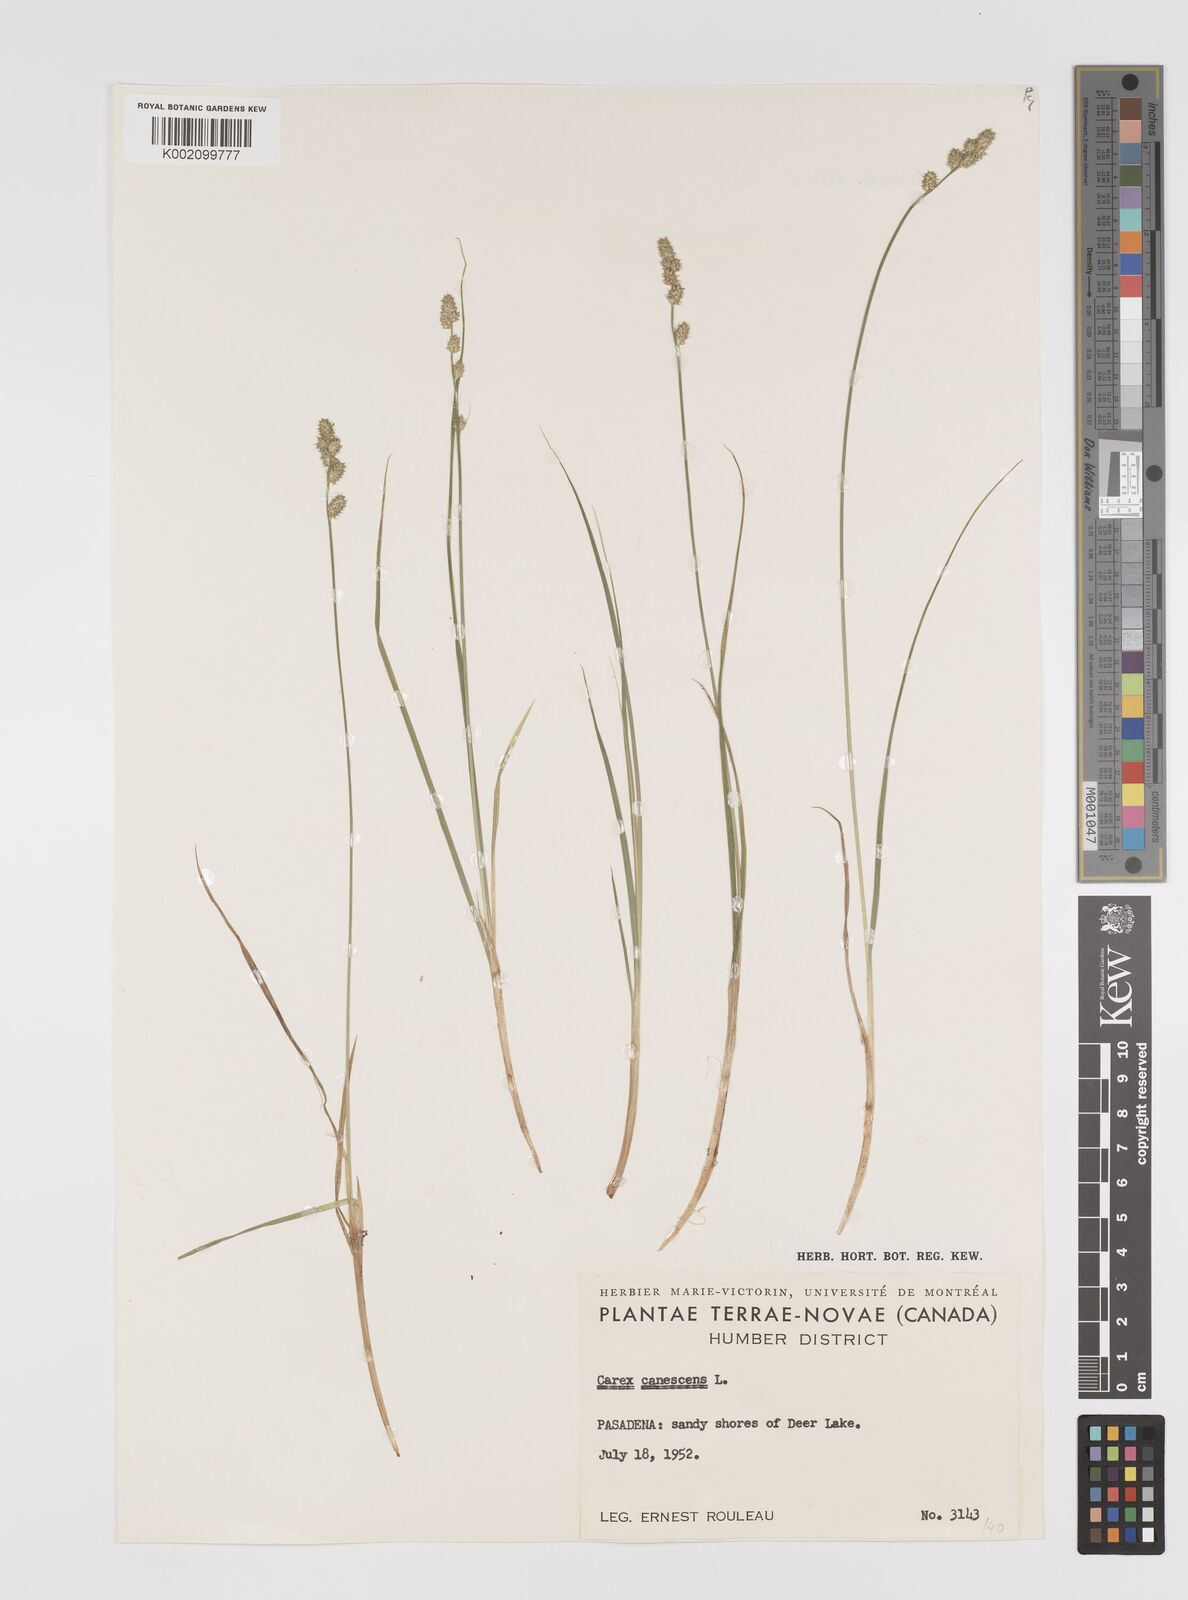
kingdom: Plantae
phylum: Tracheophyta
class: Liliopsida
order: Poales
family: Cyperaceae
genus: Carex
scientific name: Carex curta
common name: White sedge
